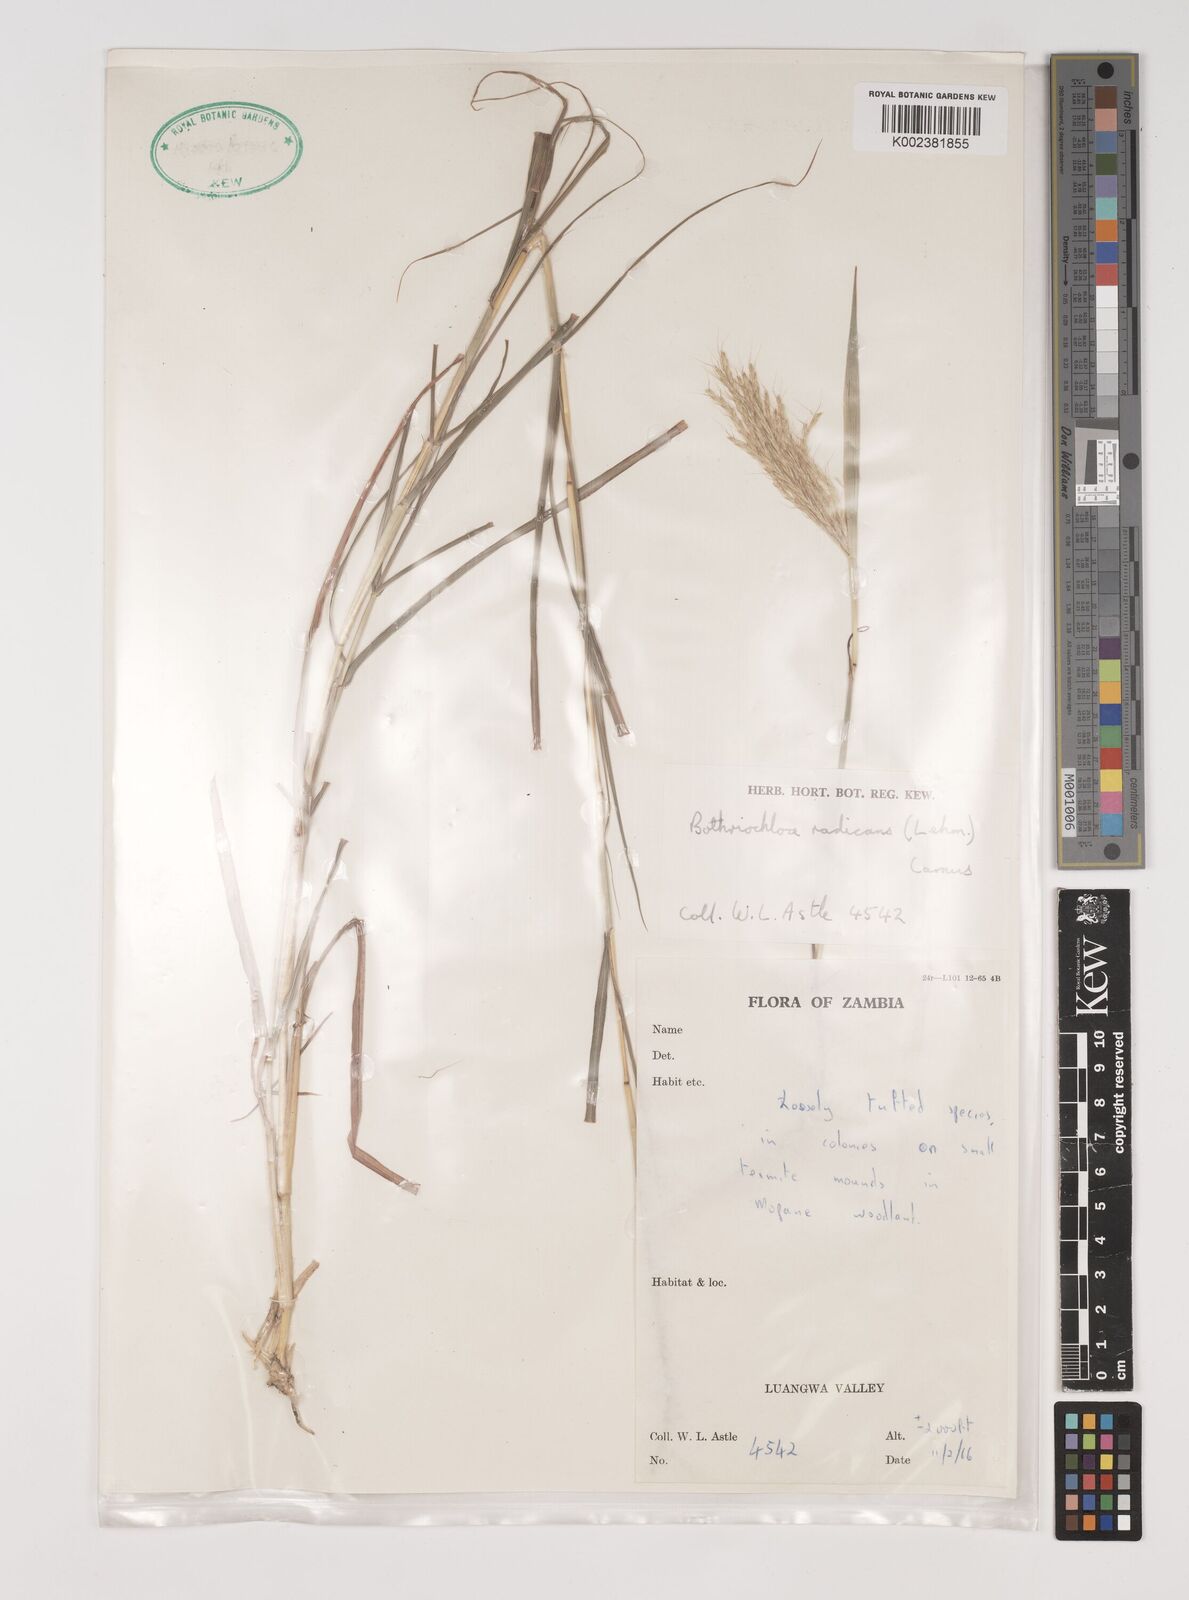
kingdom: Plantae
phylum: Tracheophyta
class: Liliopsida
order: Poales
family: Poaceae
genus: Bothriochloa
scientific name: Bothriochloa radicans
